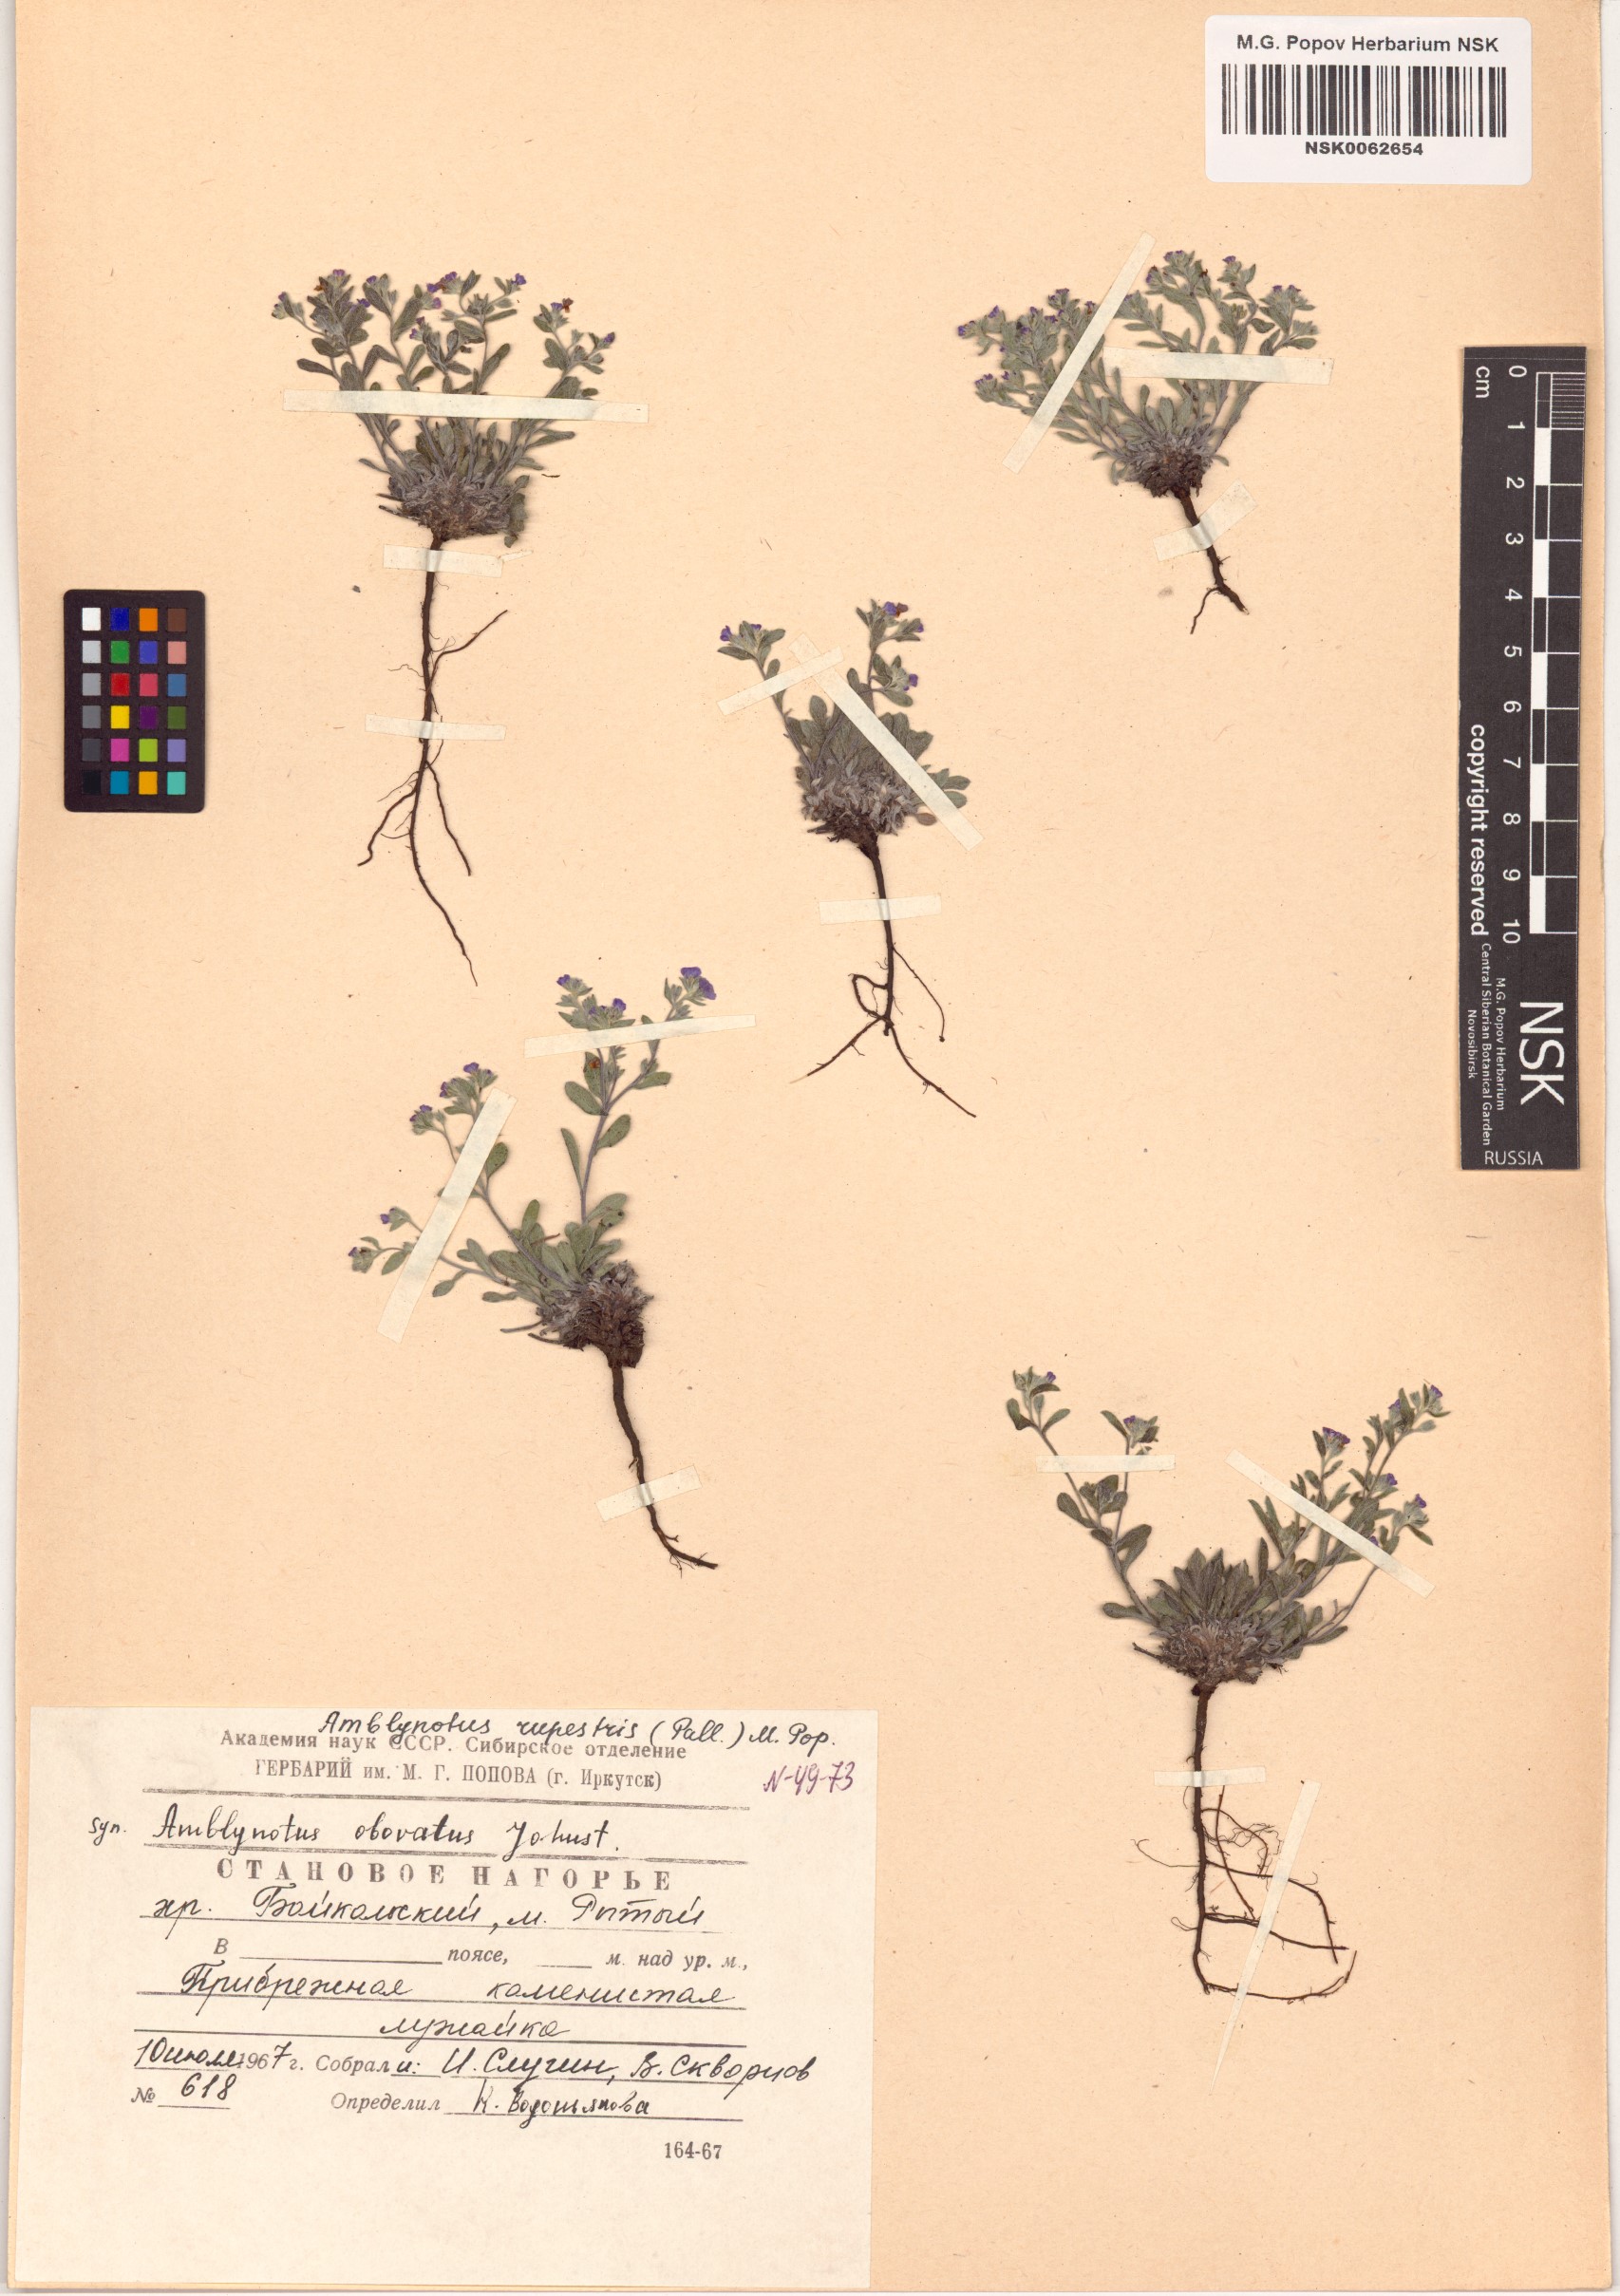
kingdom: Plantae
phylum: Tracheophyta
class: Magnoliopsida
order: Boraginales
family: Boraginaceae
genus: Eritrichium
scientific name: Eritrichium rupestre
